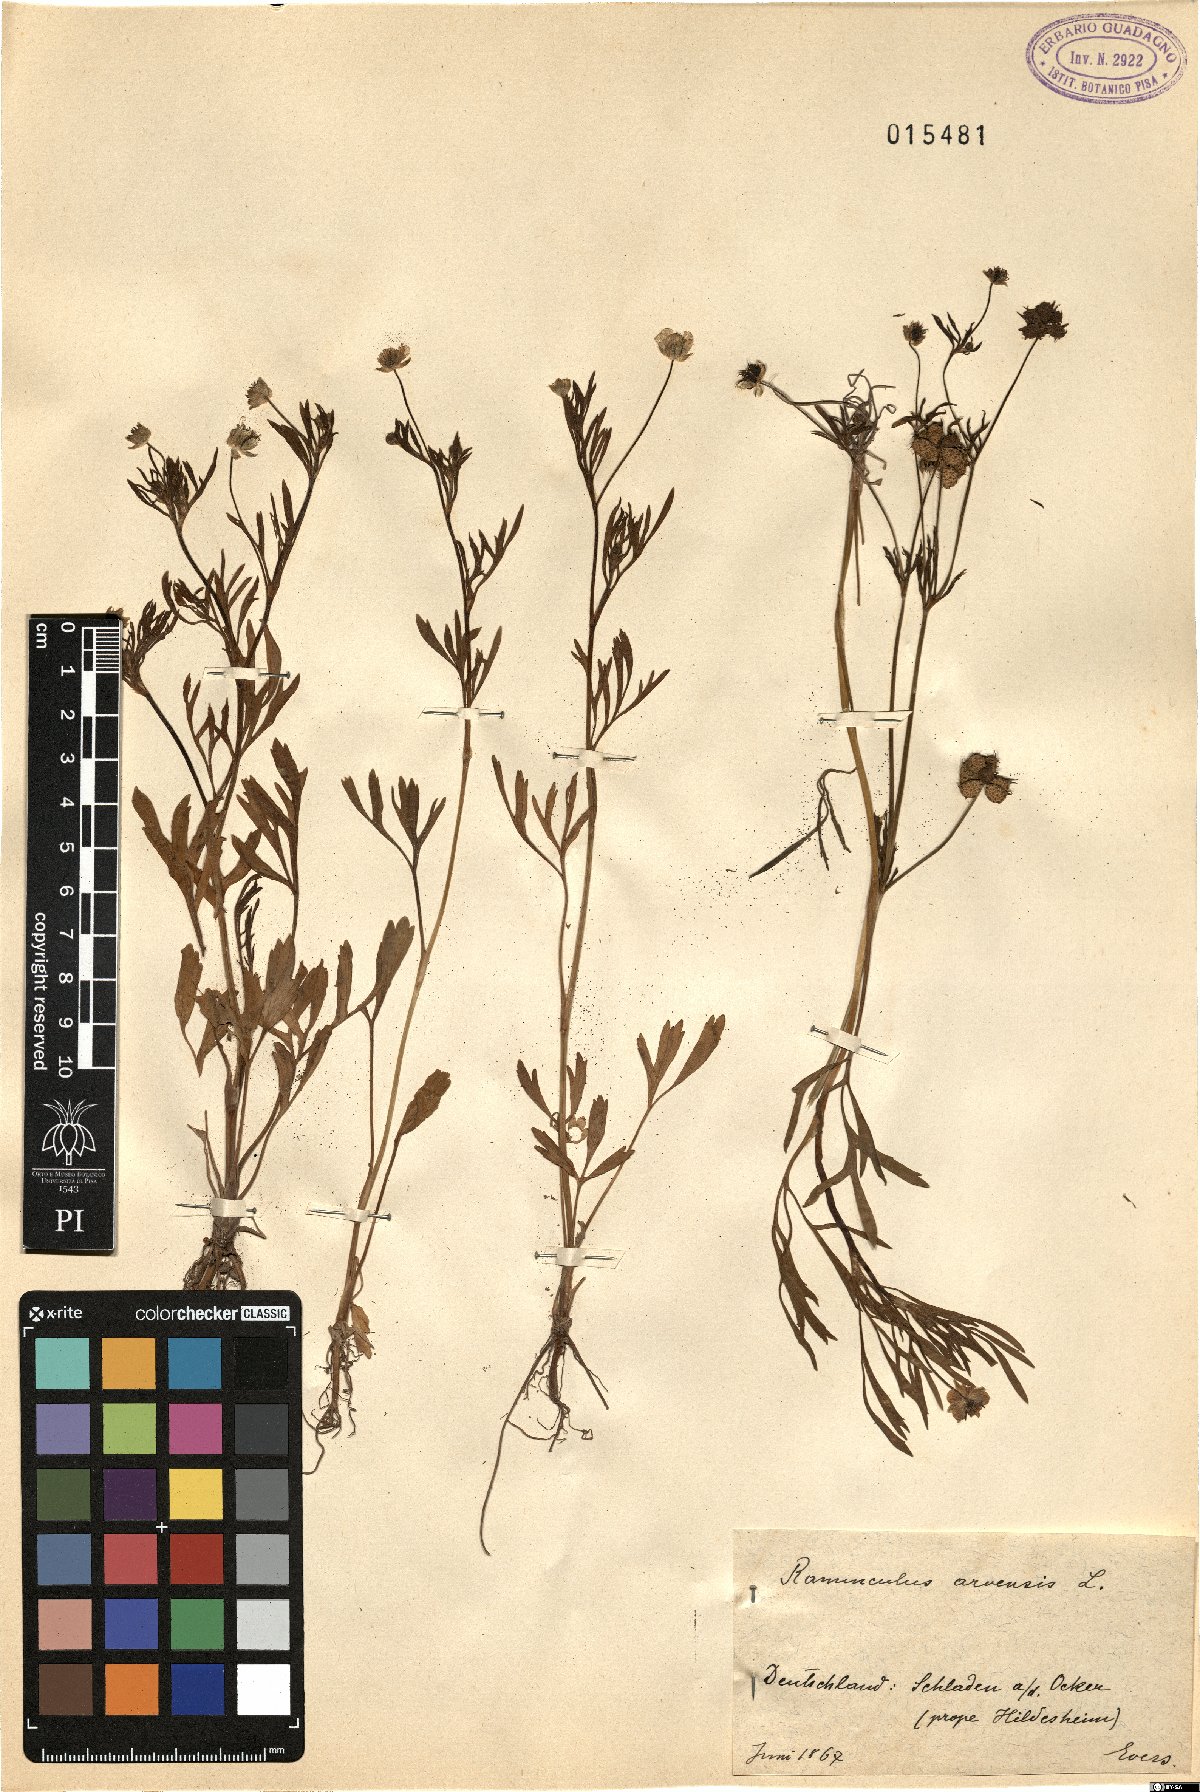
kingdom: Plantae
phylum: Tracheophyta
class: Magnoliopsida
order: Ranunculales
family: Ranunculaceae
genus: Ranunculus
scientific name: Ranunculus arvensis
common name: Corn buttercup
